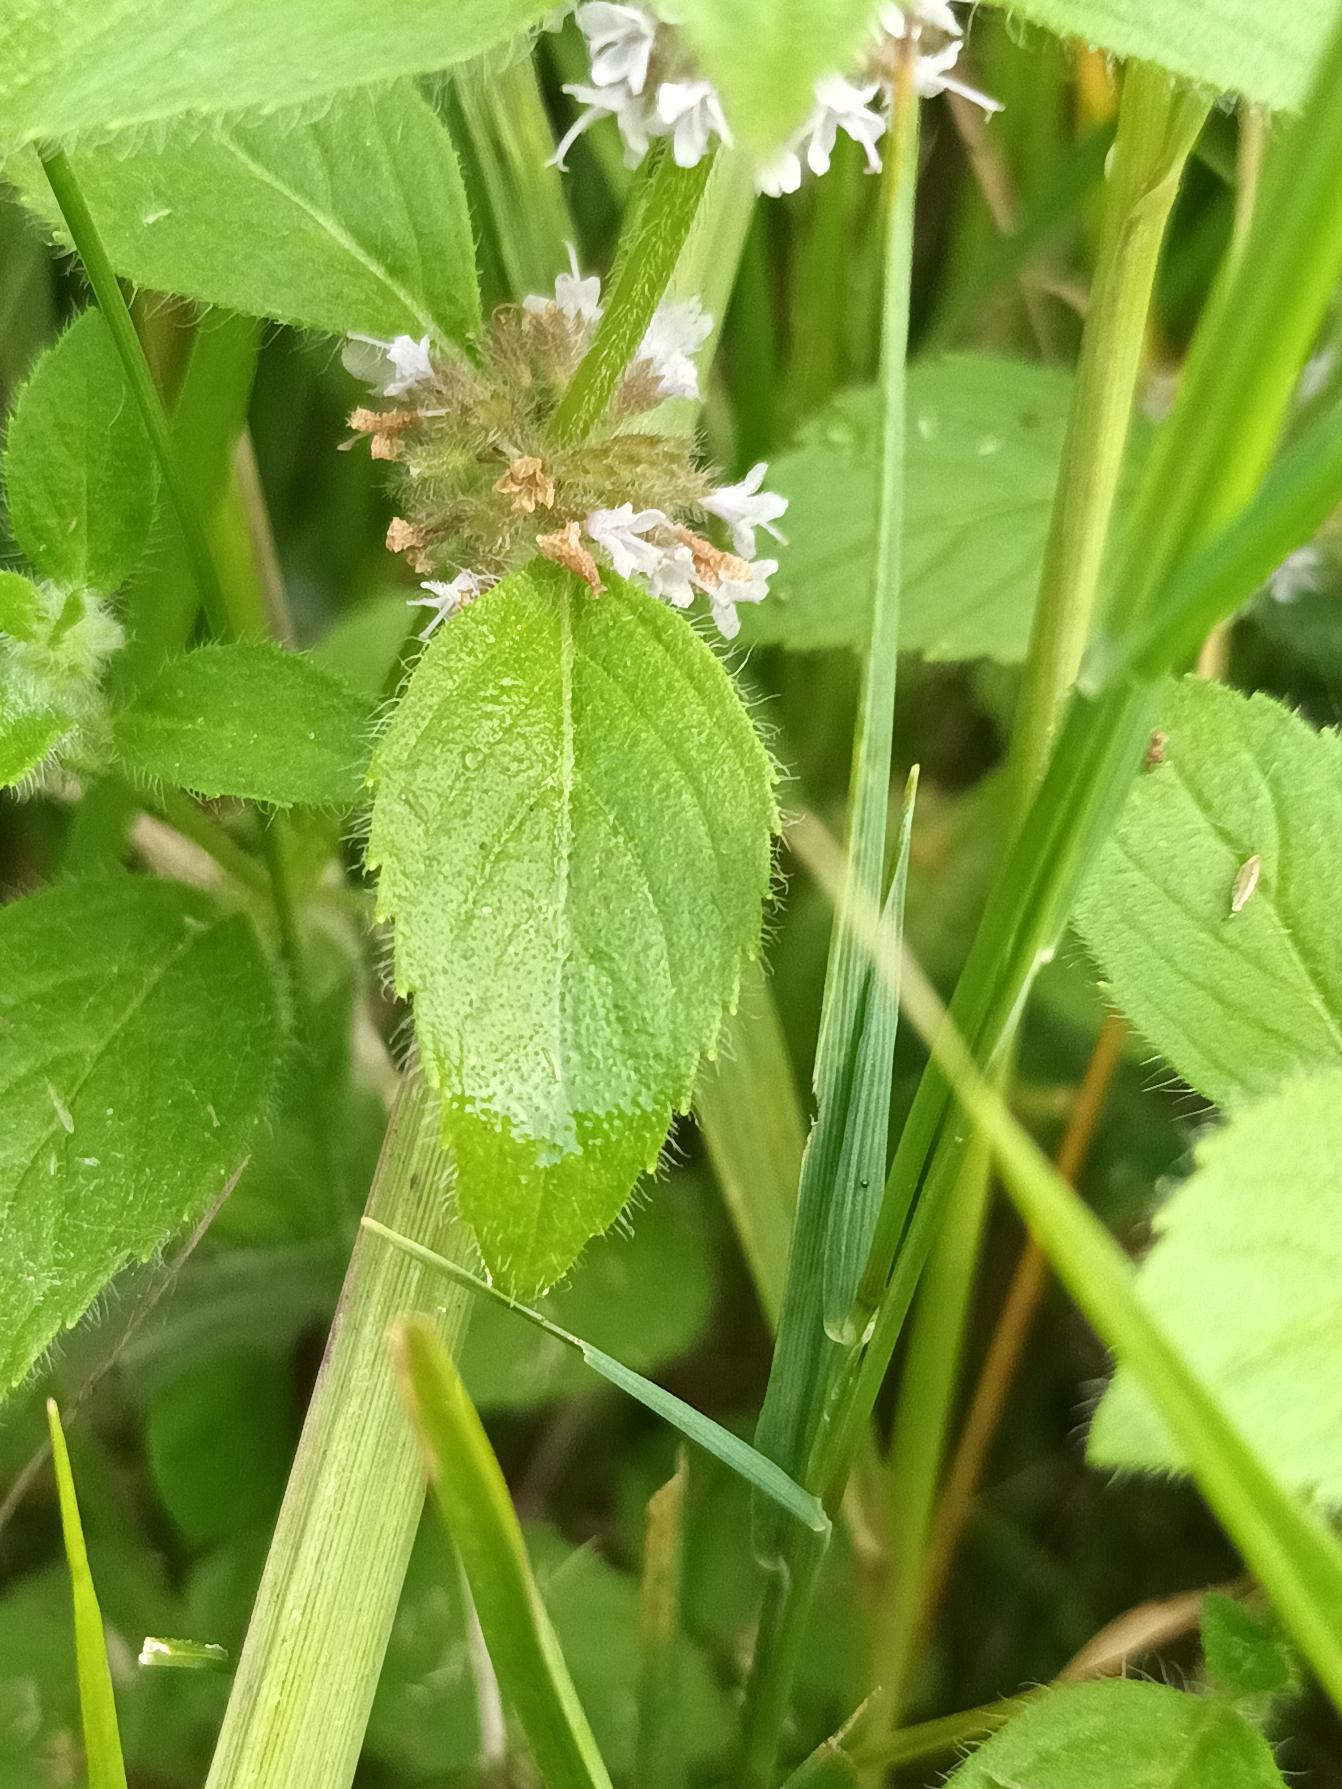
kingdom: Plantae
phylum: Tracheophyta
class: Magnoliopsida
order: Lamiales
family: Lamiaceae
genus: Mentha
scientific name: Mentha arvensis
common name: Ager-mynte
